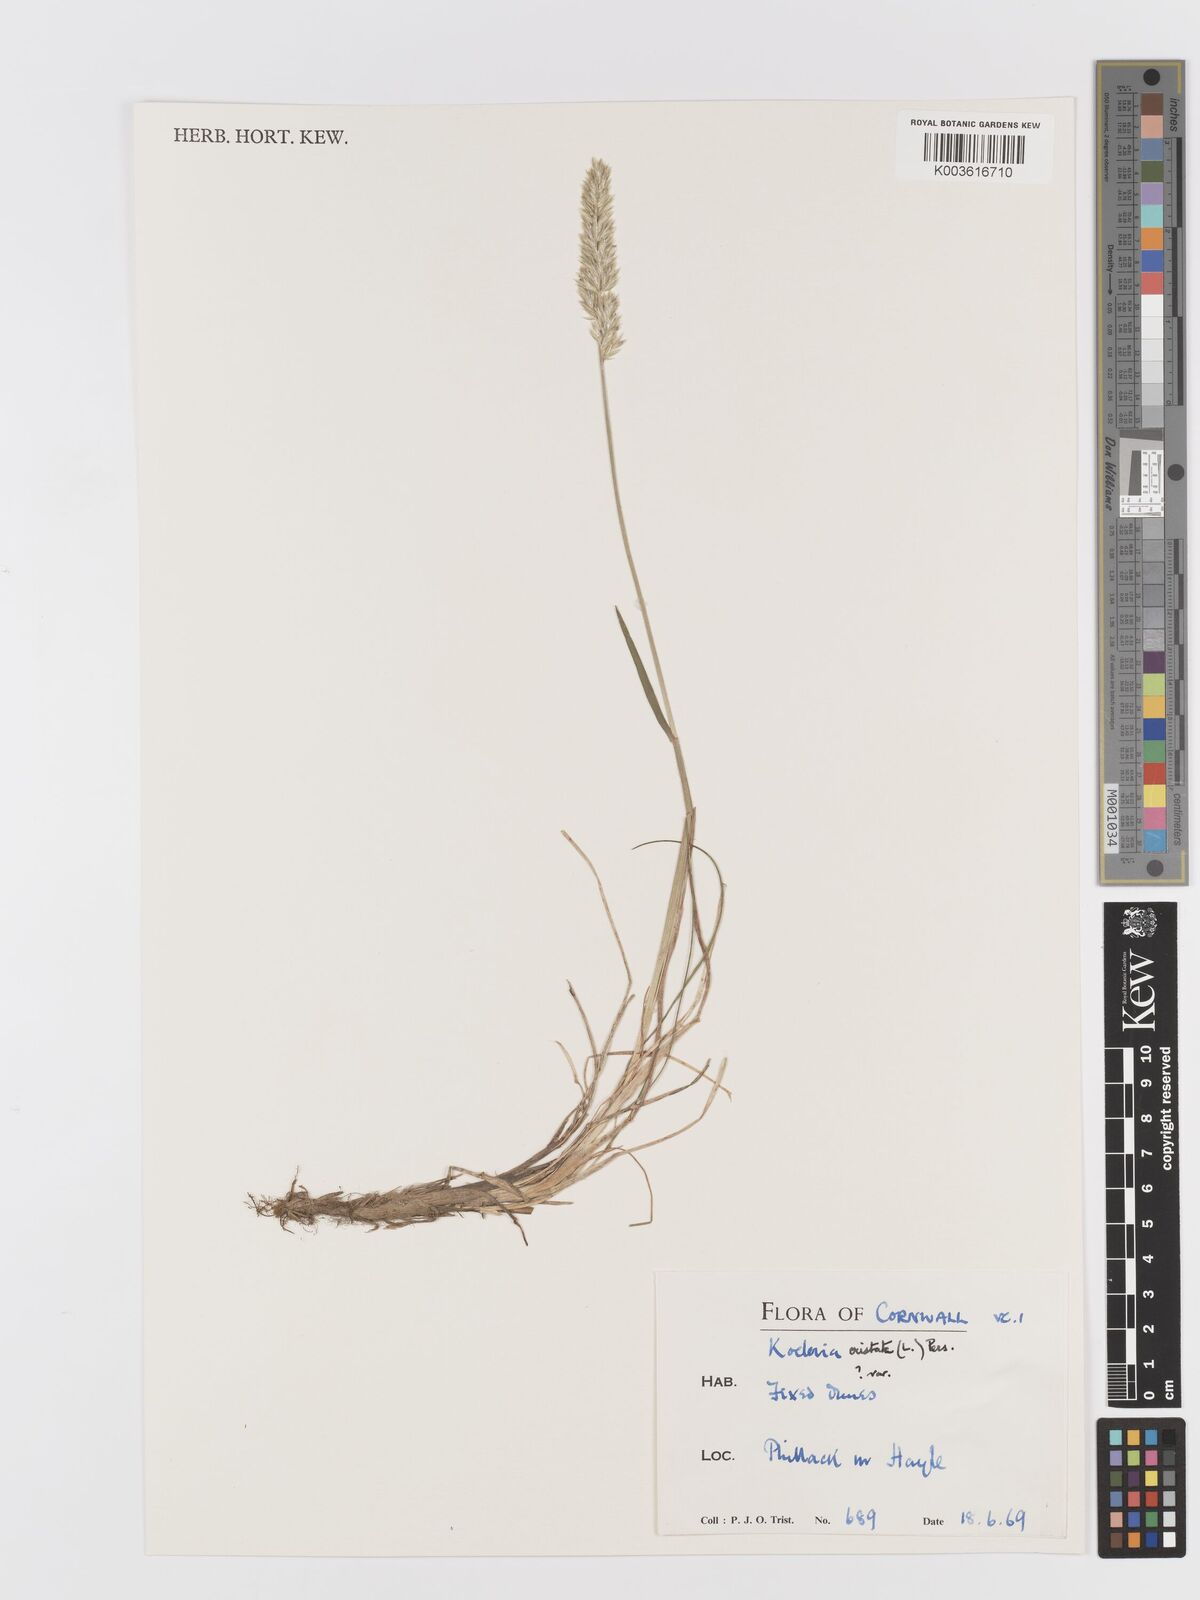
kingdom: Plantae
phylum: Tracheophyta
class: Liliopsida
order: Poales
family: Poaceae
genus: Koeleria
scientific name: Koeleria
